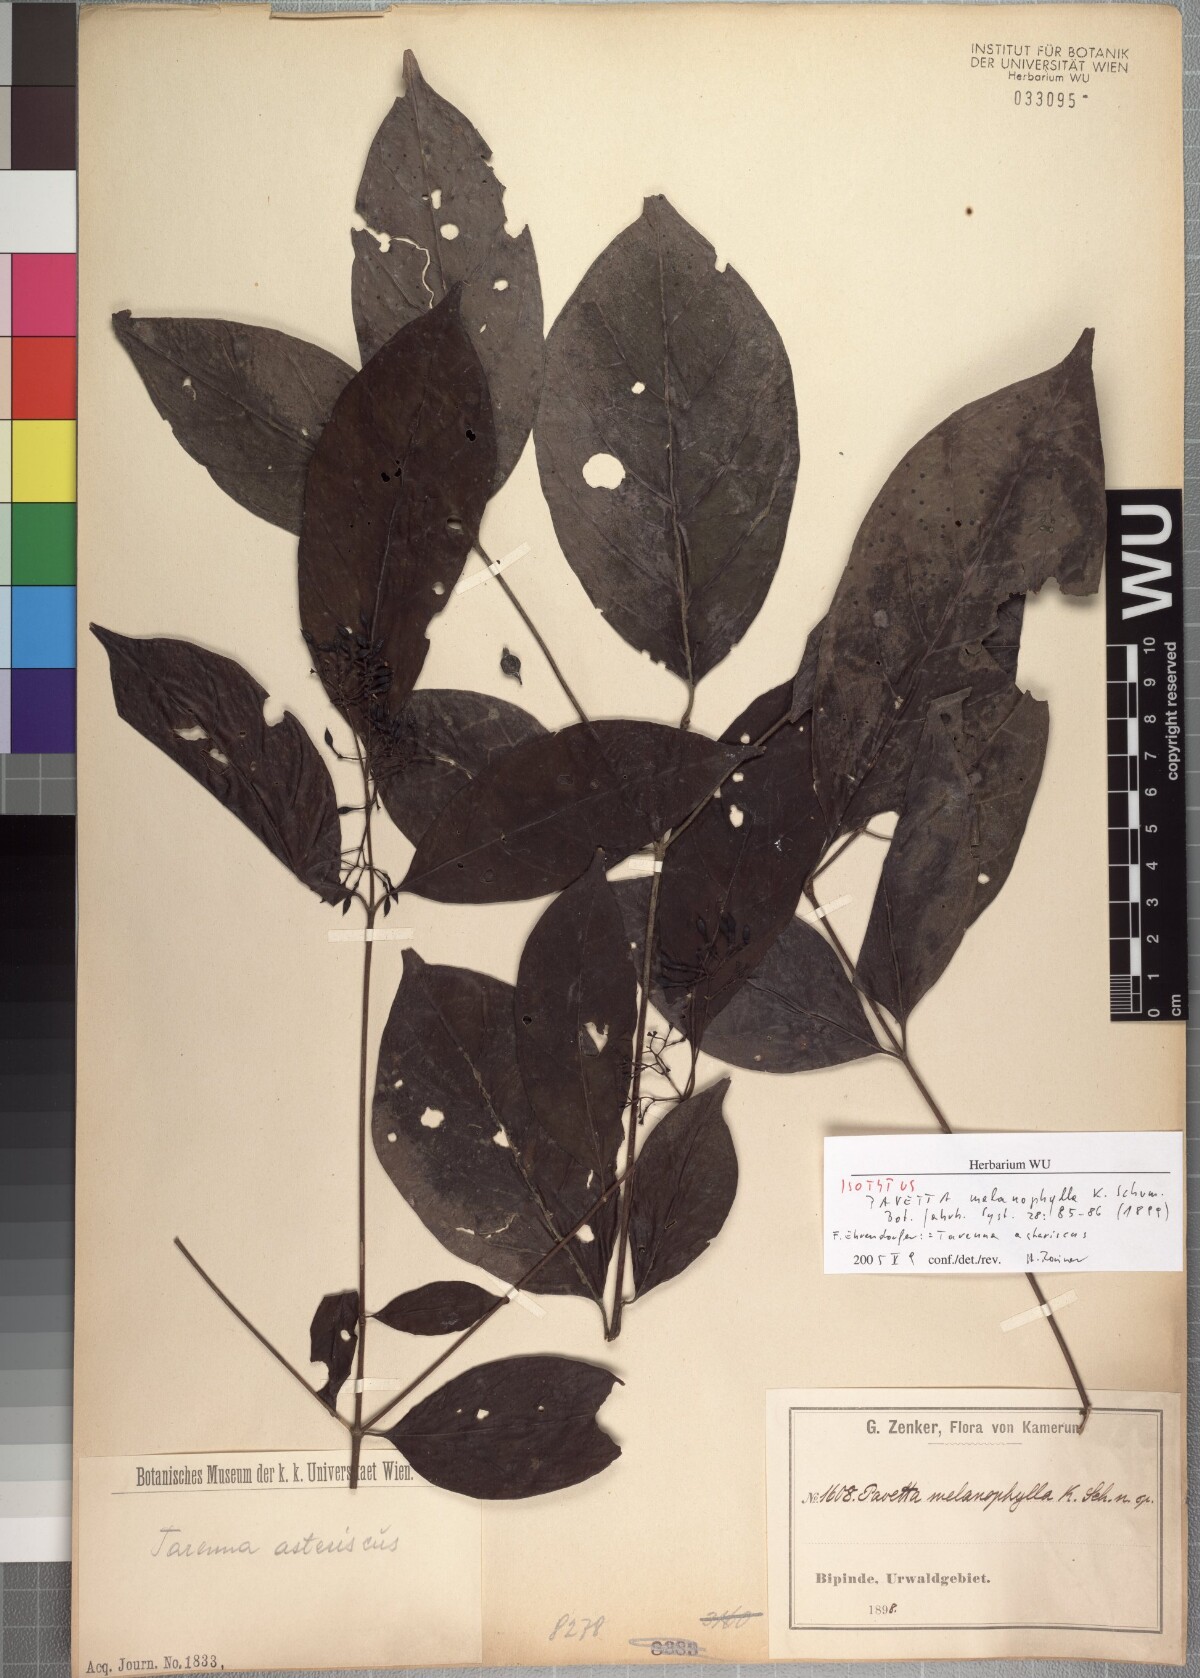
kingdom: Plantae
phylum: Tracheophyta
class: Magnoliopsida
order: Gentianales
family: Rubiaceae
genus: Nichallea
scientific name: Nichallea soyauxii
